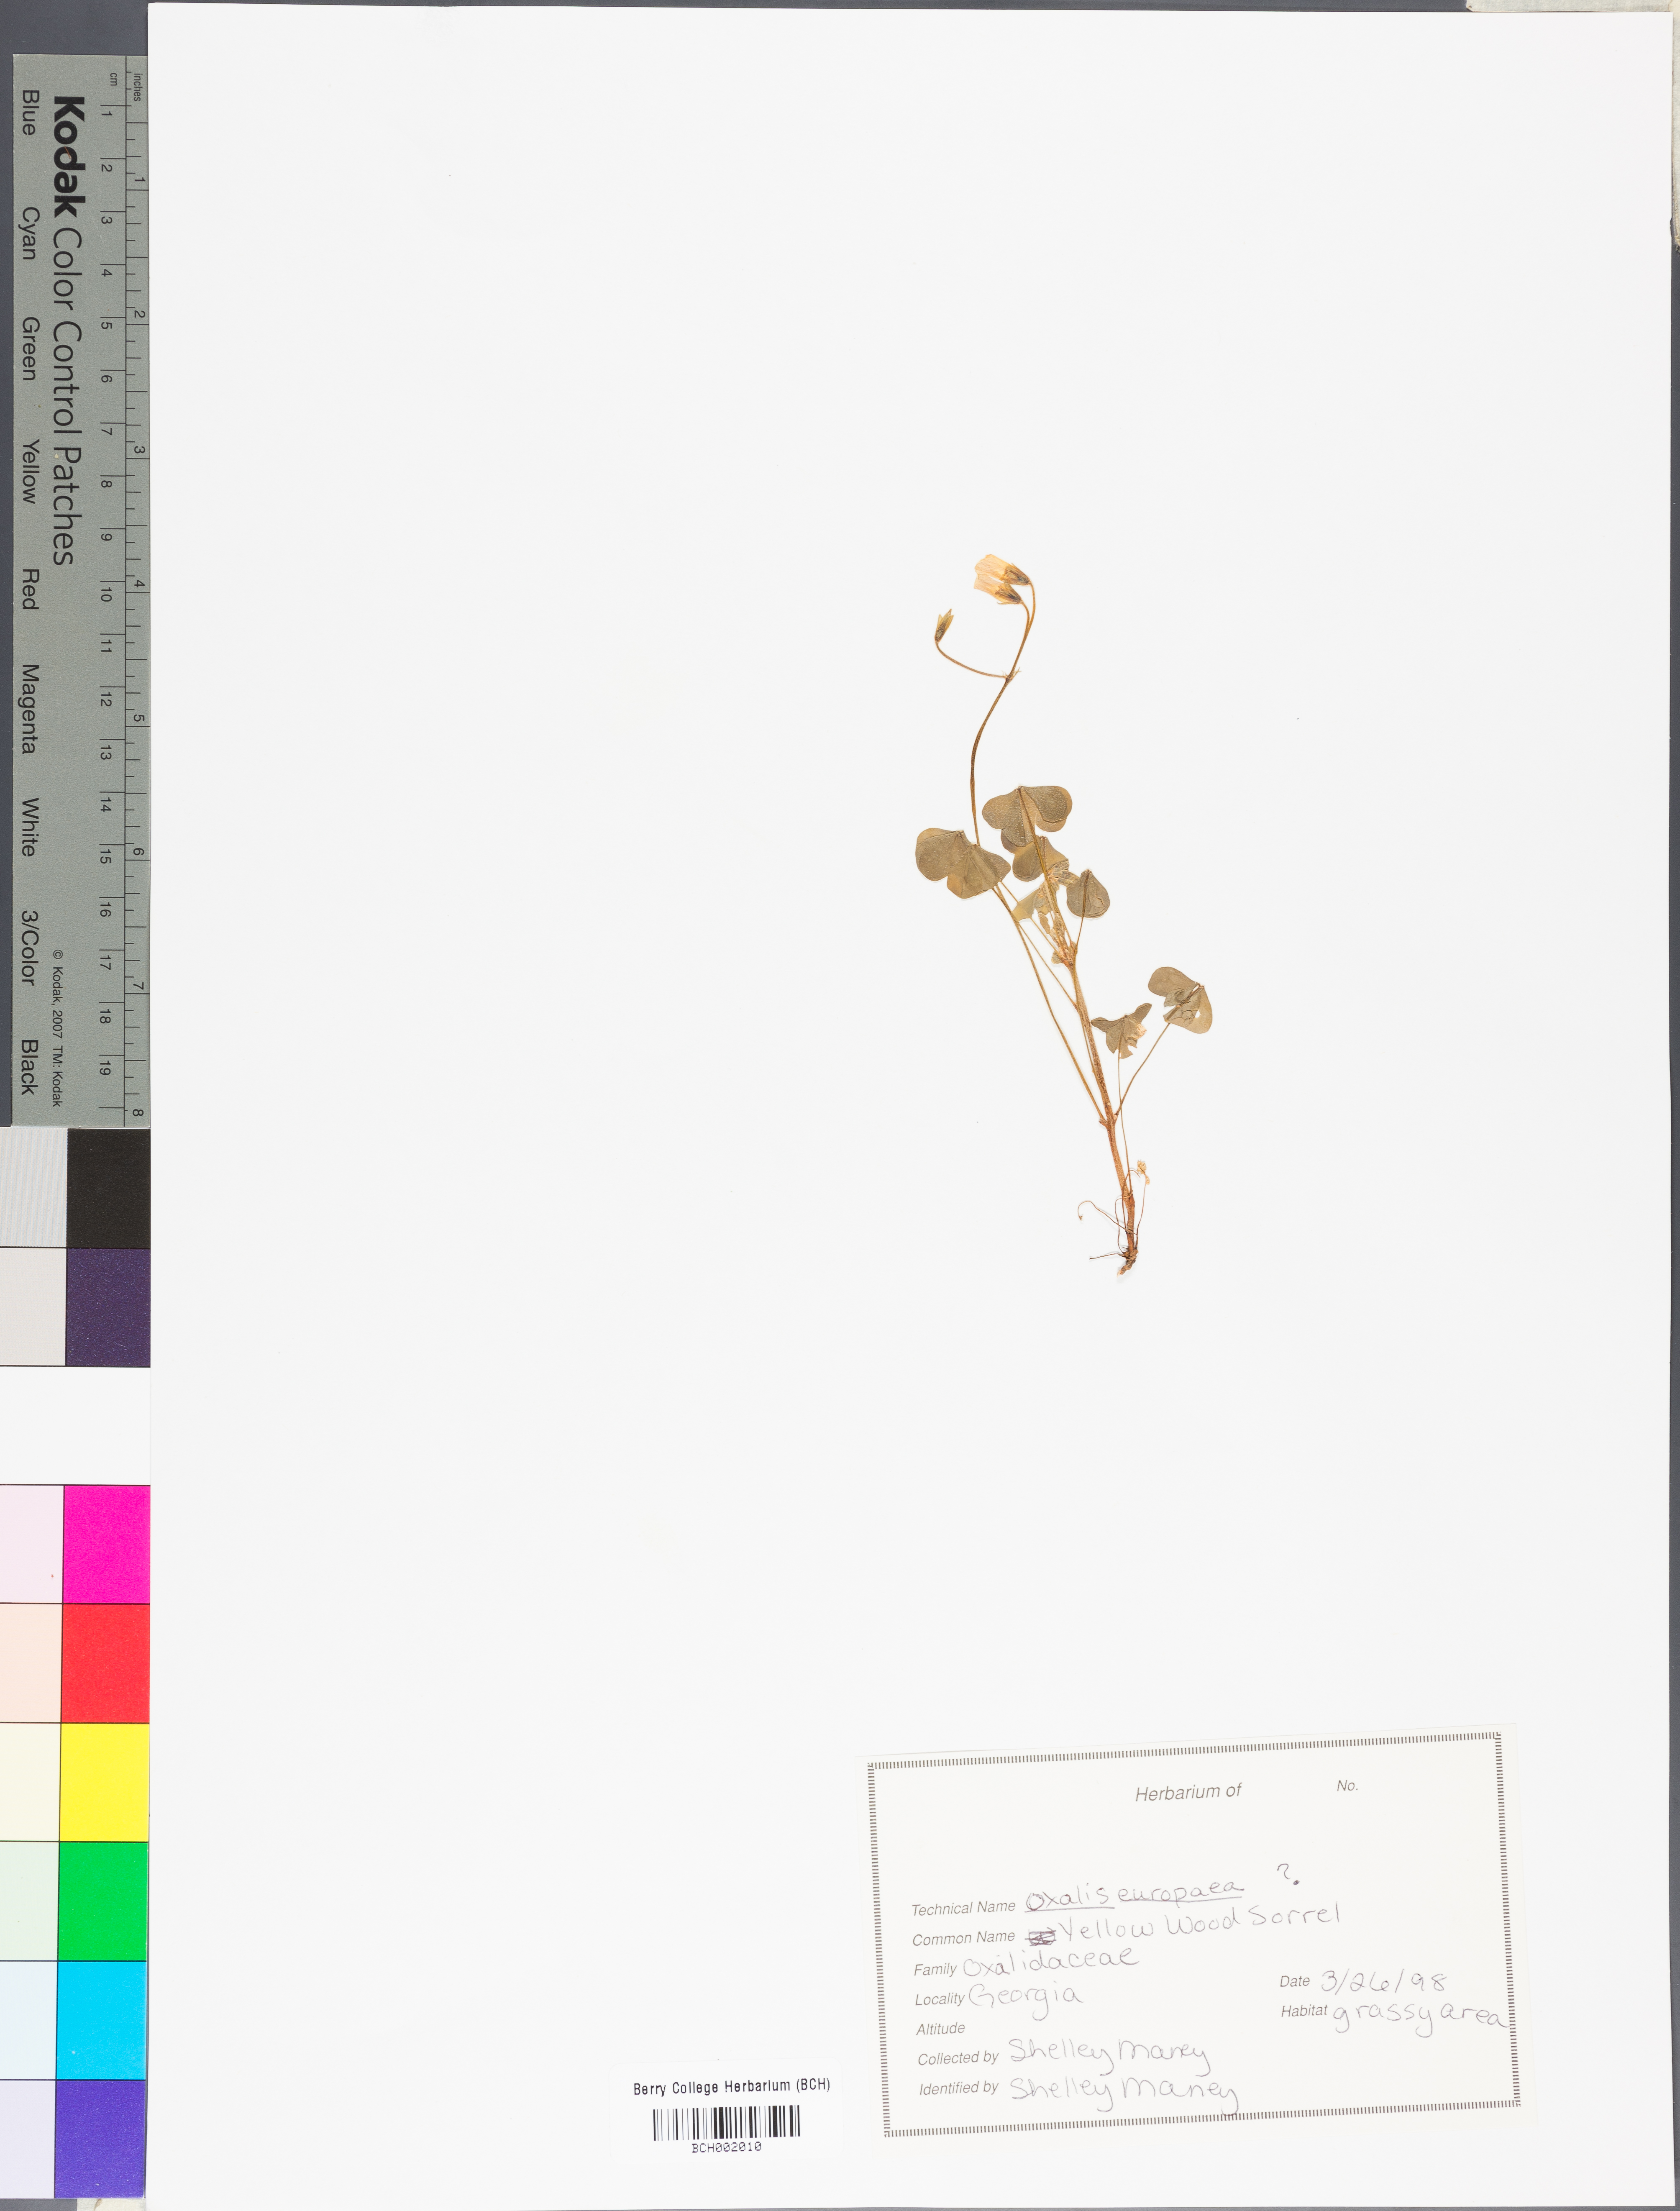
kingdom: Plantae
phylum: Tracheophyta
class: Magnoliopsida
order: Oxalidales
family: Oxalidaceae
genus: Oxalis
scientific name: Oxalis stricta
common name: Upright yellow-sorrel
